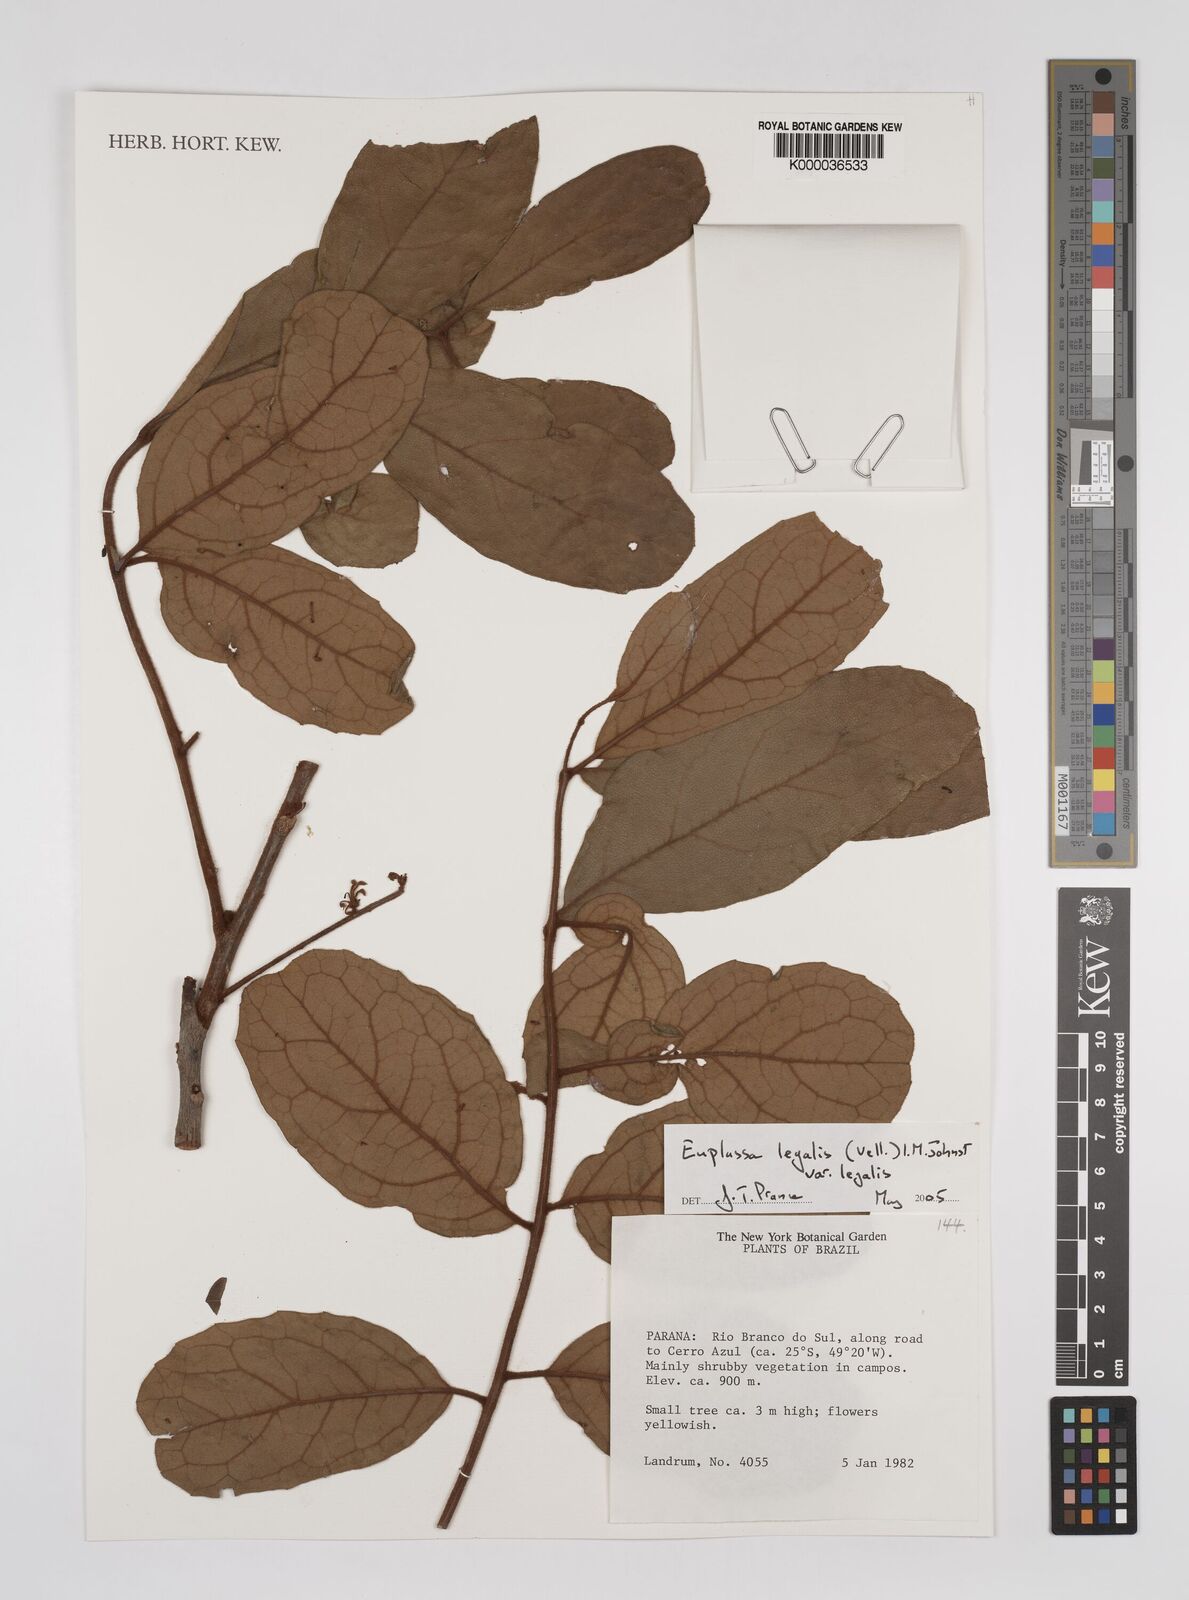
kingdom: Plantae
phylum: Tracheophyta
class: Magnoliopsida
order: Proteales
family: Proteaceae
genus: Euplassa
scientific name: Euplassa legalis
